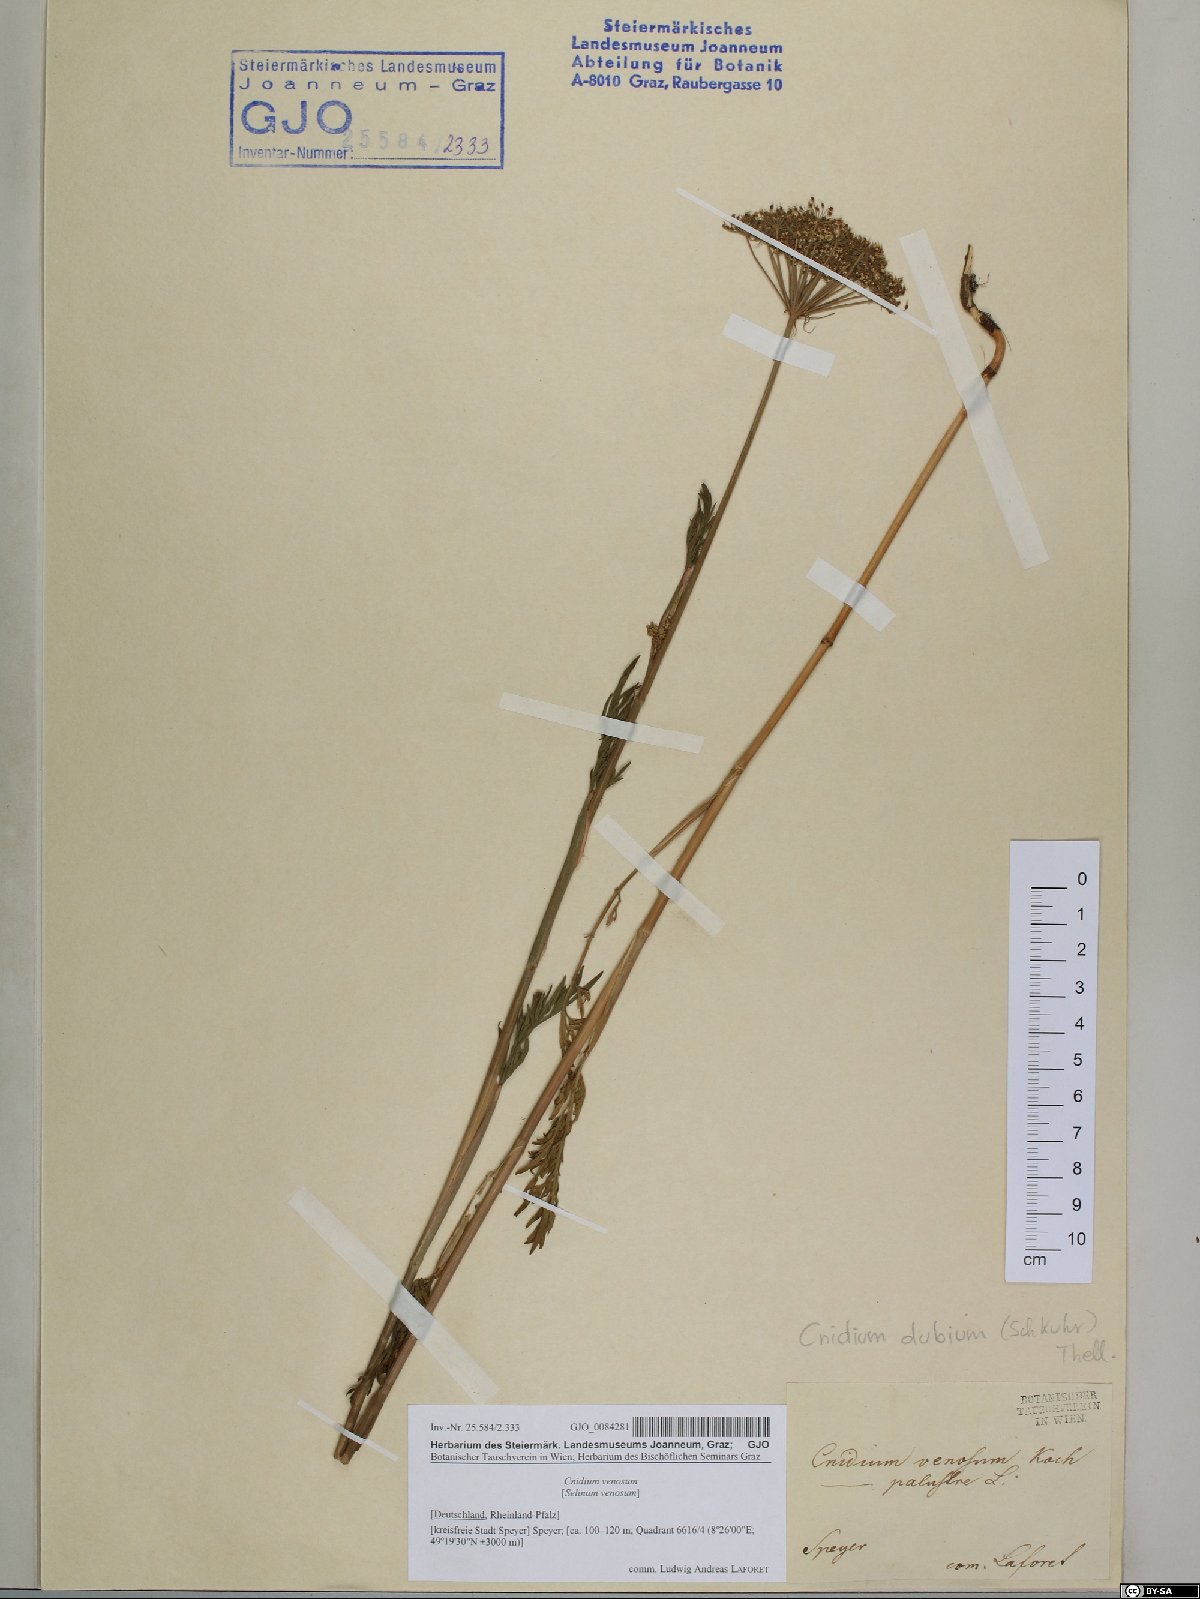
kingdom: Plantae
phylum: Tracheophyta
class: Magnoliopsida
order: Apiales
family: Apiaceae
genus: Kadenia
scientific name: Kadenia dubia
